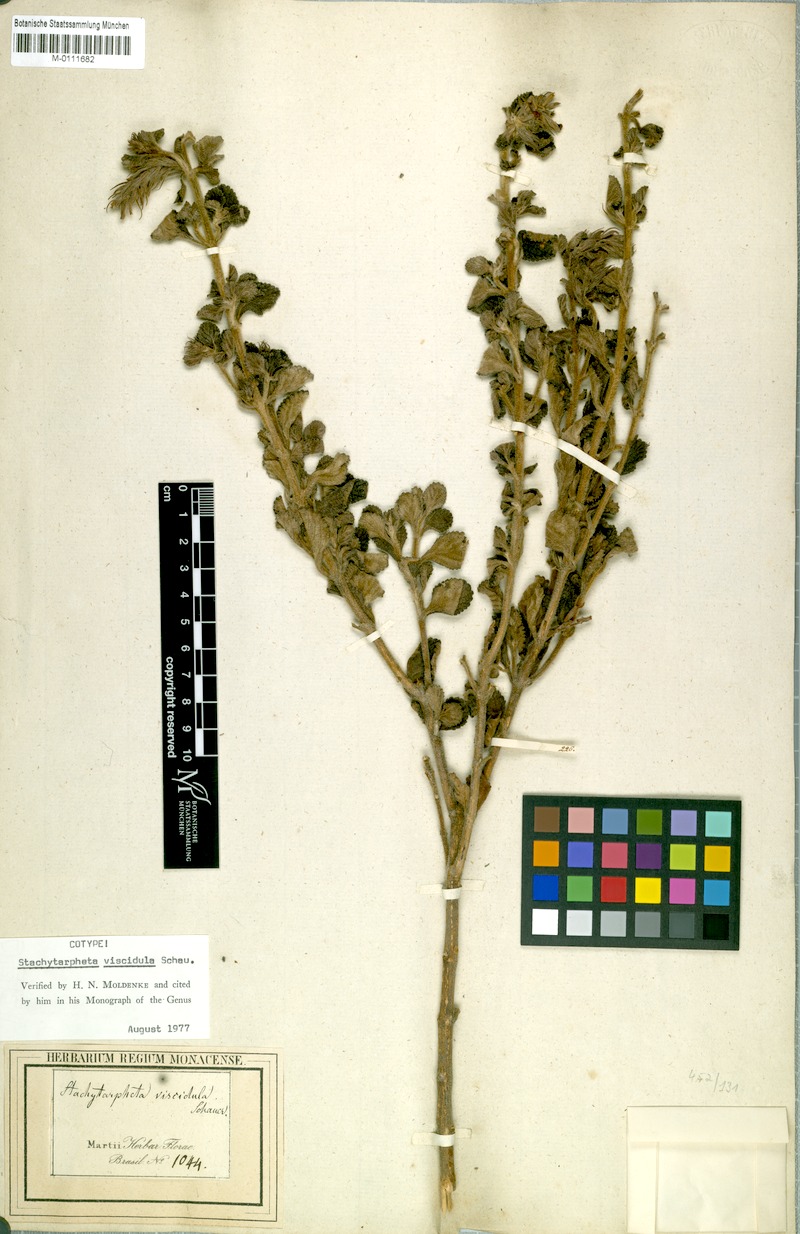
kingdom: Plantae
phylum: Tracheophyta
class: Magnoliopsida
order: Lamiales
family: Verbenaceae
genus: Stachytarpheta
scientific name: Stachytarpheta viscidula
